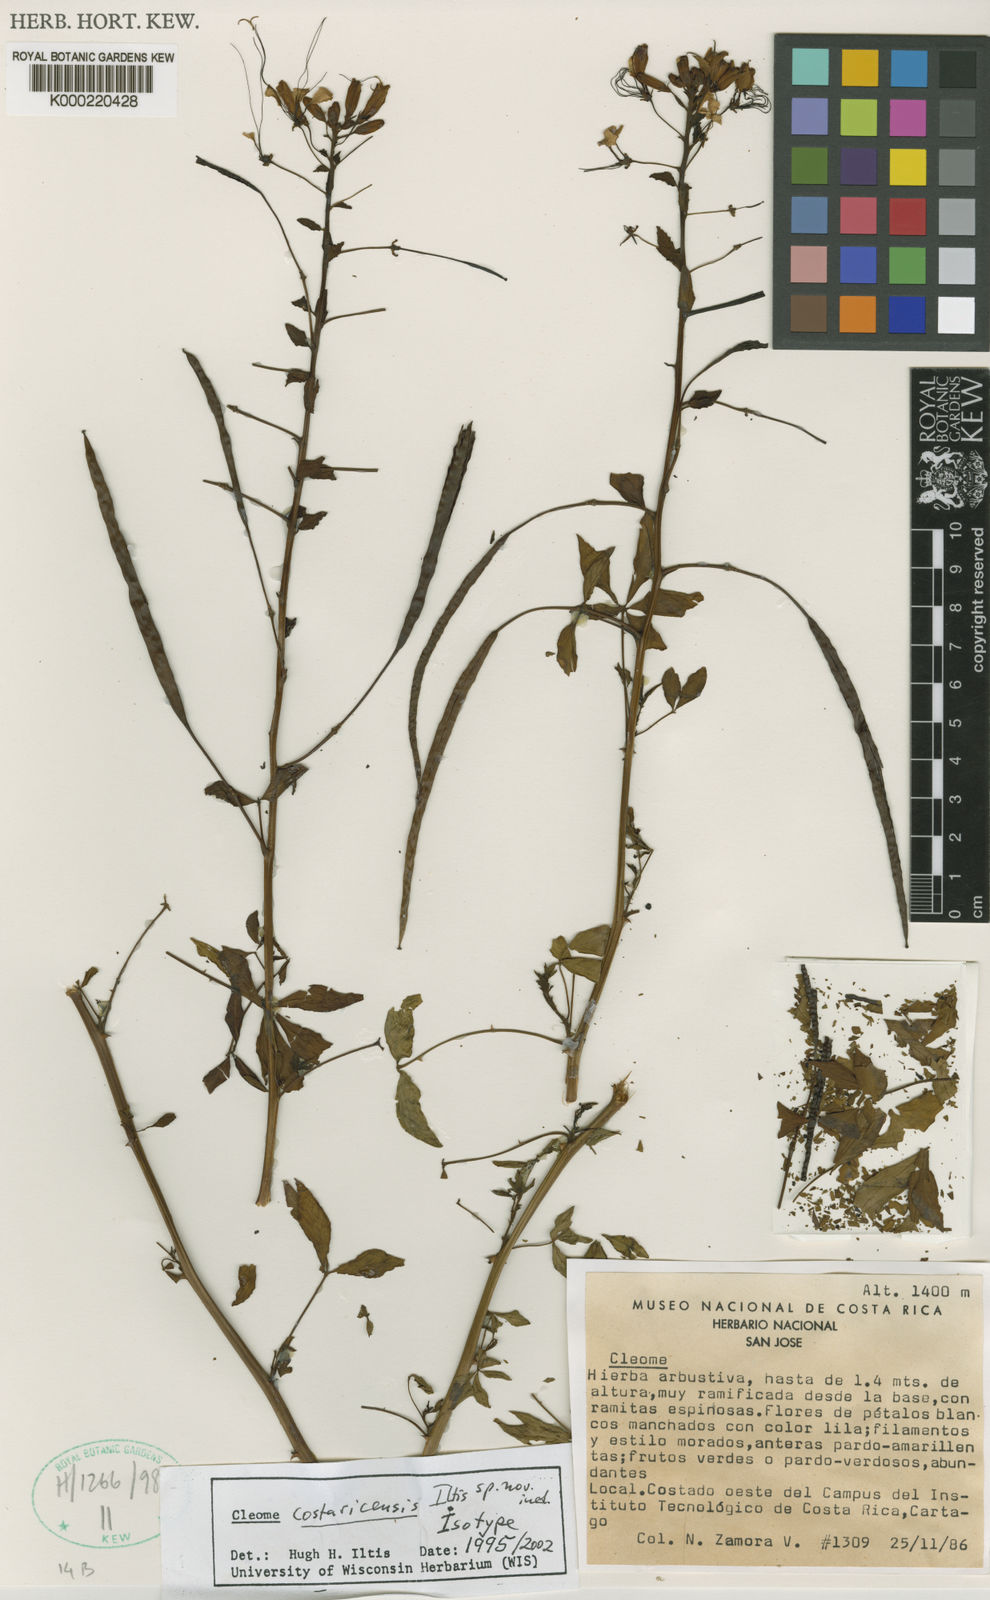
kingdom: Plantae
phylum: Tracheophyta
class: Magnoliopsida
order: Brassicales
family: Cleomaceae
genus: Tarenaya
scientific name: Tarenaya costaricensis
